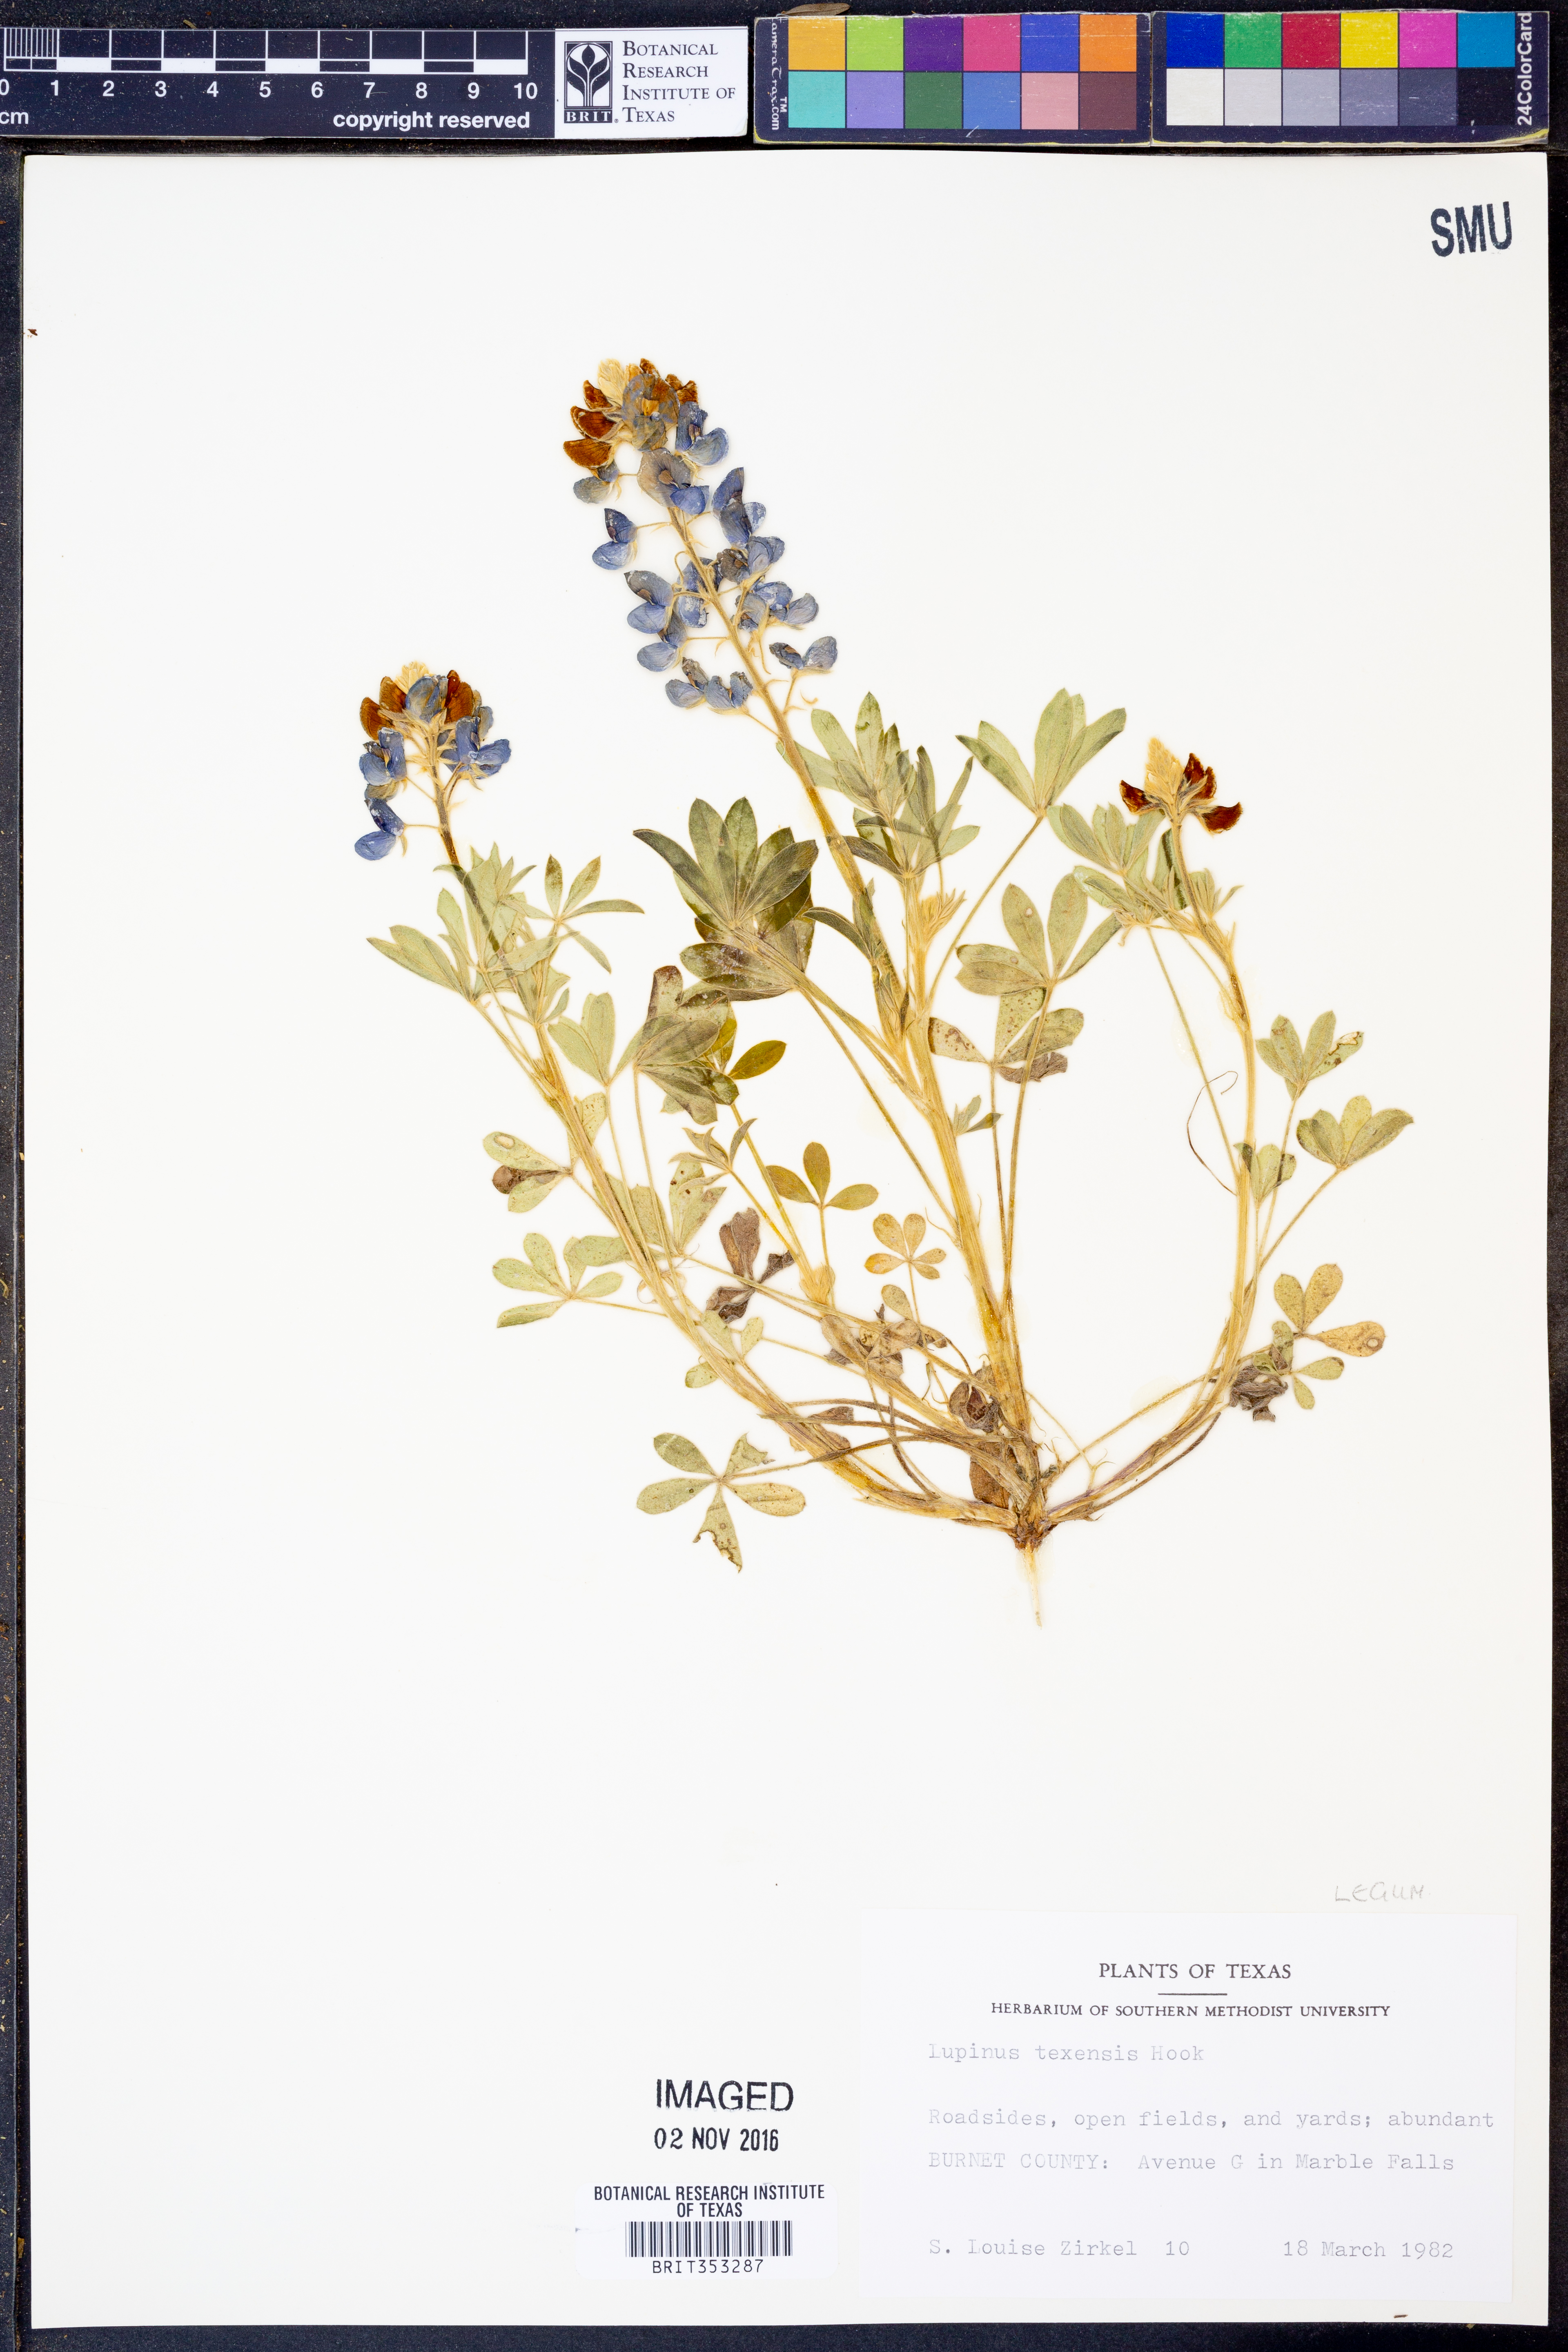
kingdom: Plantae
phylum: Tracheophyta
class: Magnoliopsida
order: Fabales
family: Fabaceae
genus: Lupinus
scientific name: Lupinus texensis
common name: Texas bluebonnet
